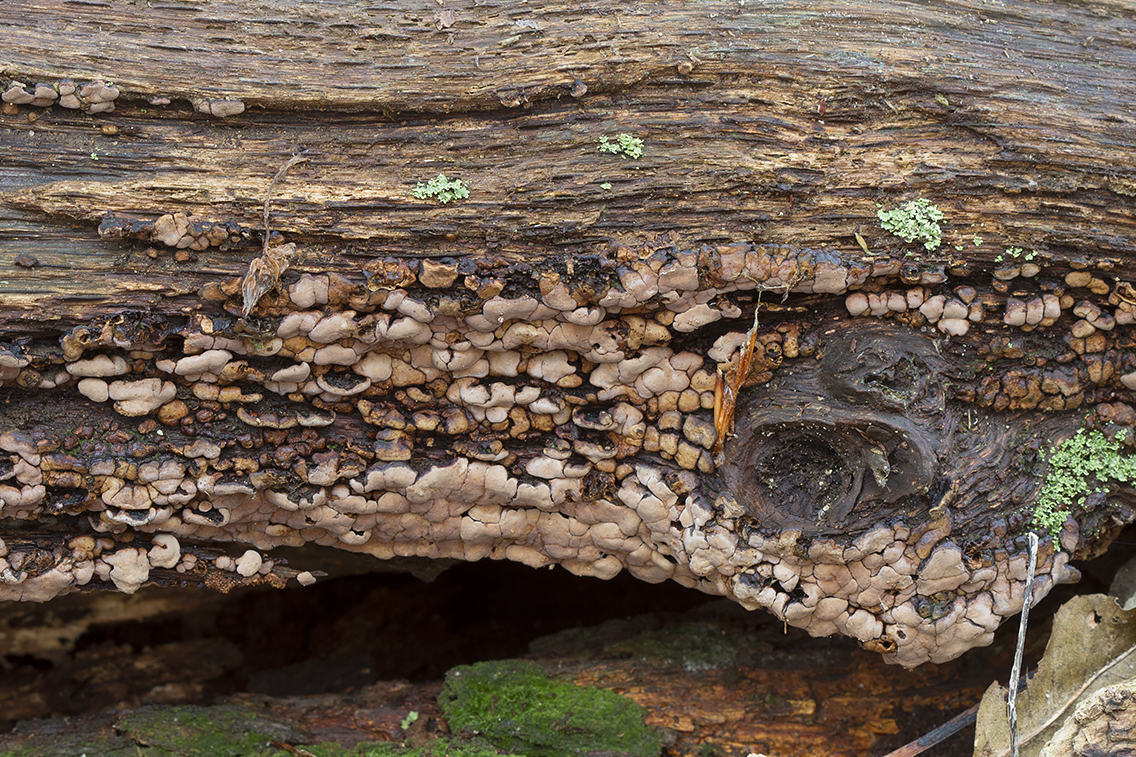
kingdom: Fungi
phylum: Basidiomycota
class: Agaricomycetes
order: Russulales
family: Stereaceae
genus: Xylobolus
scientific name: Xylobolus frustulatus
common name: mønster-lædersvamp
